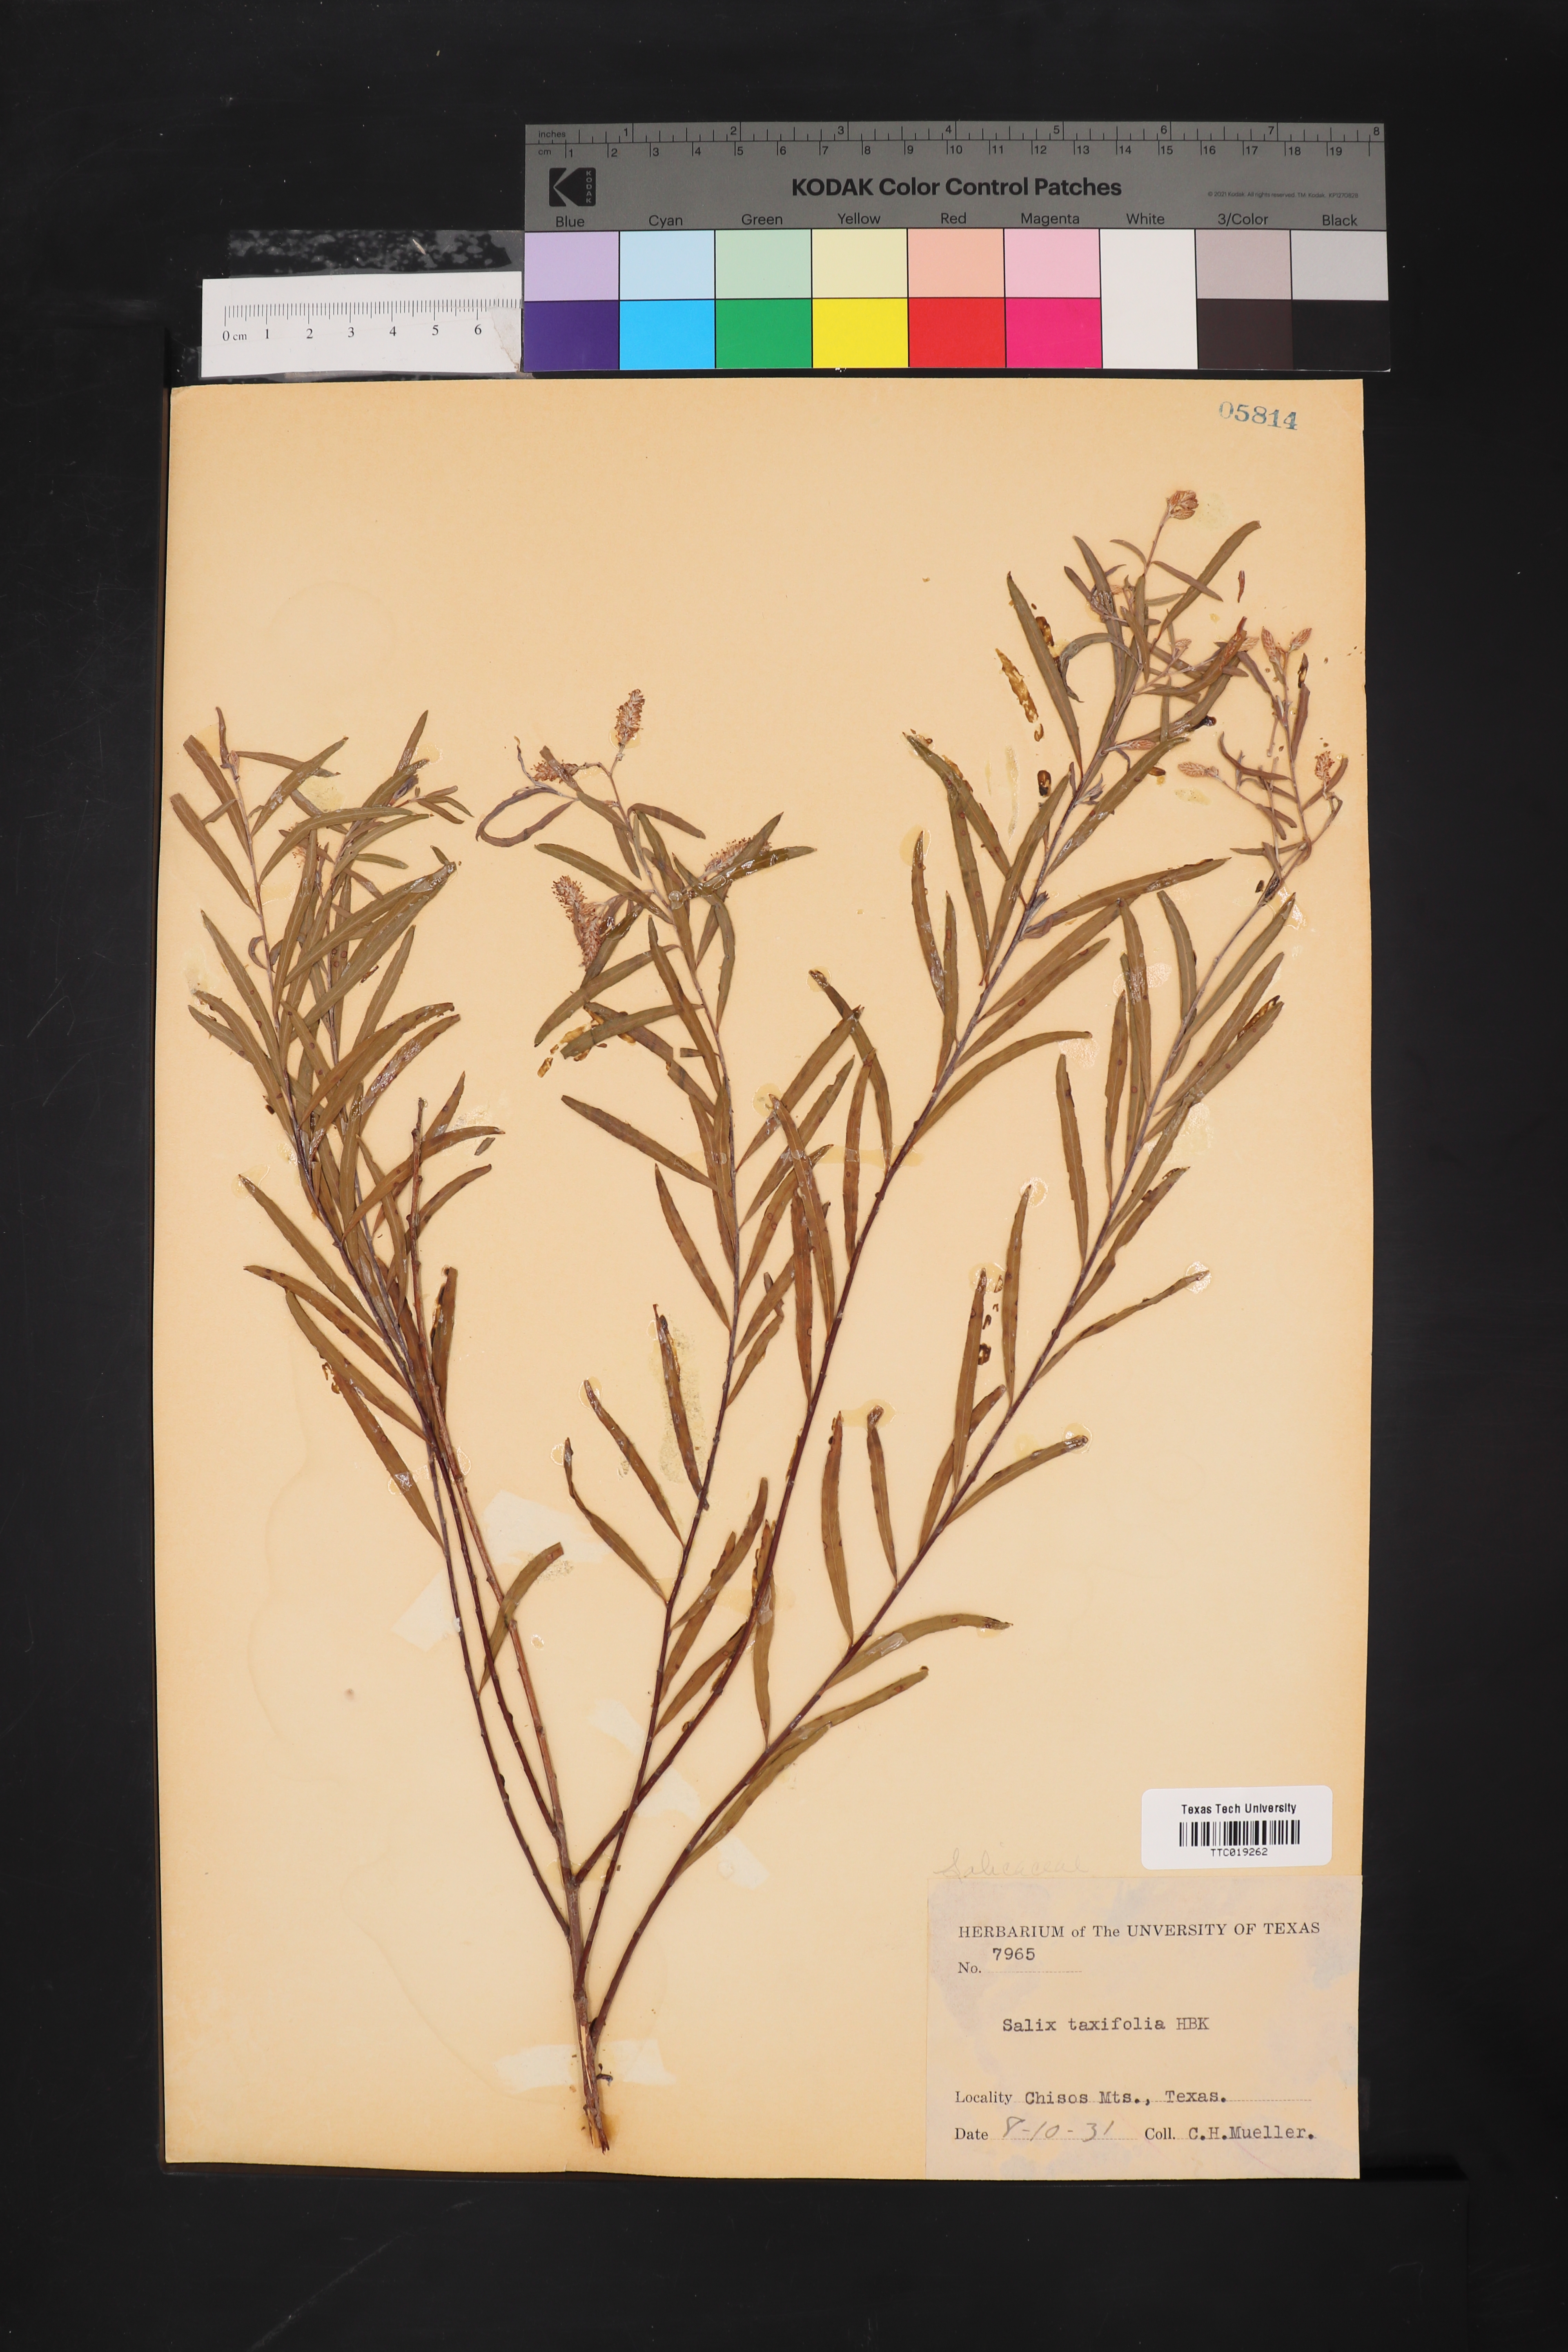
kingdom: Plantae
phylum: Tracheophyta
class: Magnoliopsida
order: Malpighiales
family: Salicaceae
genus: Salix
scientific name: Salix taxifolia
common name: Yew-leaf willow
